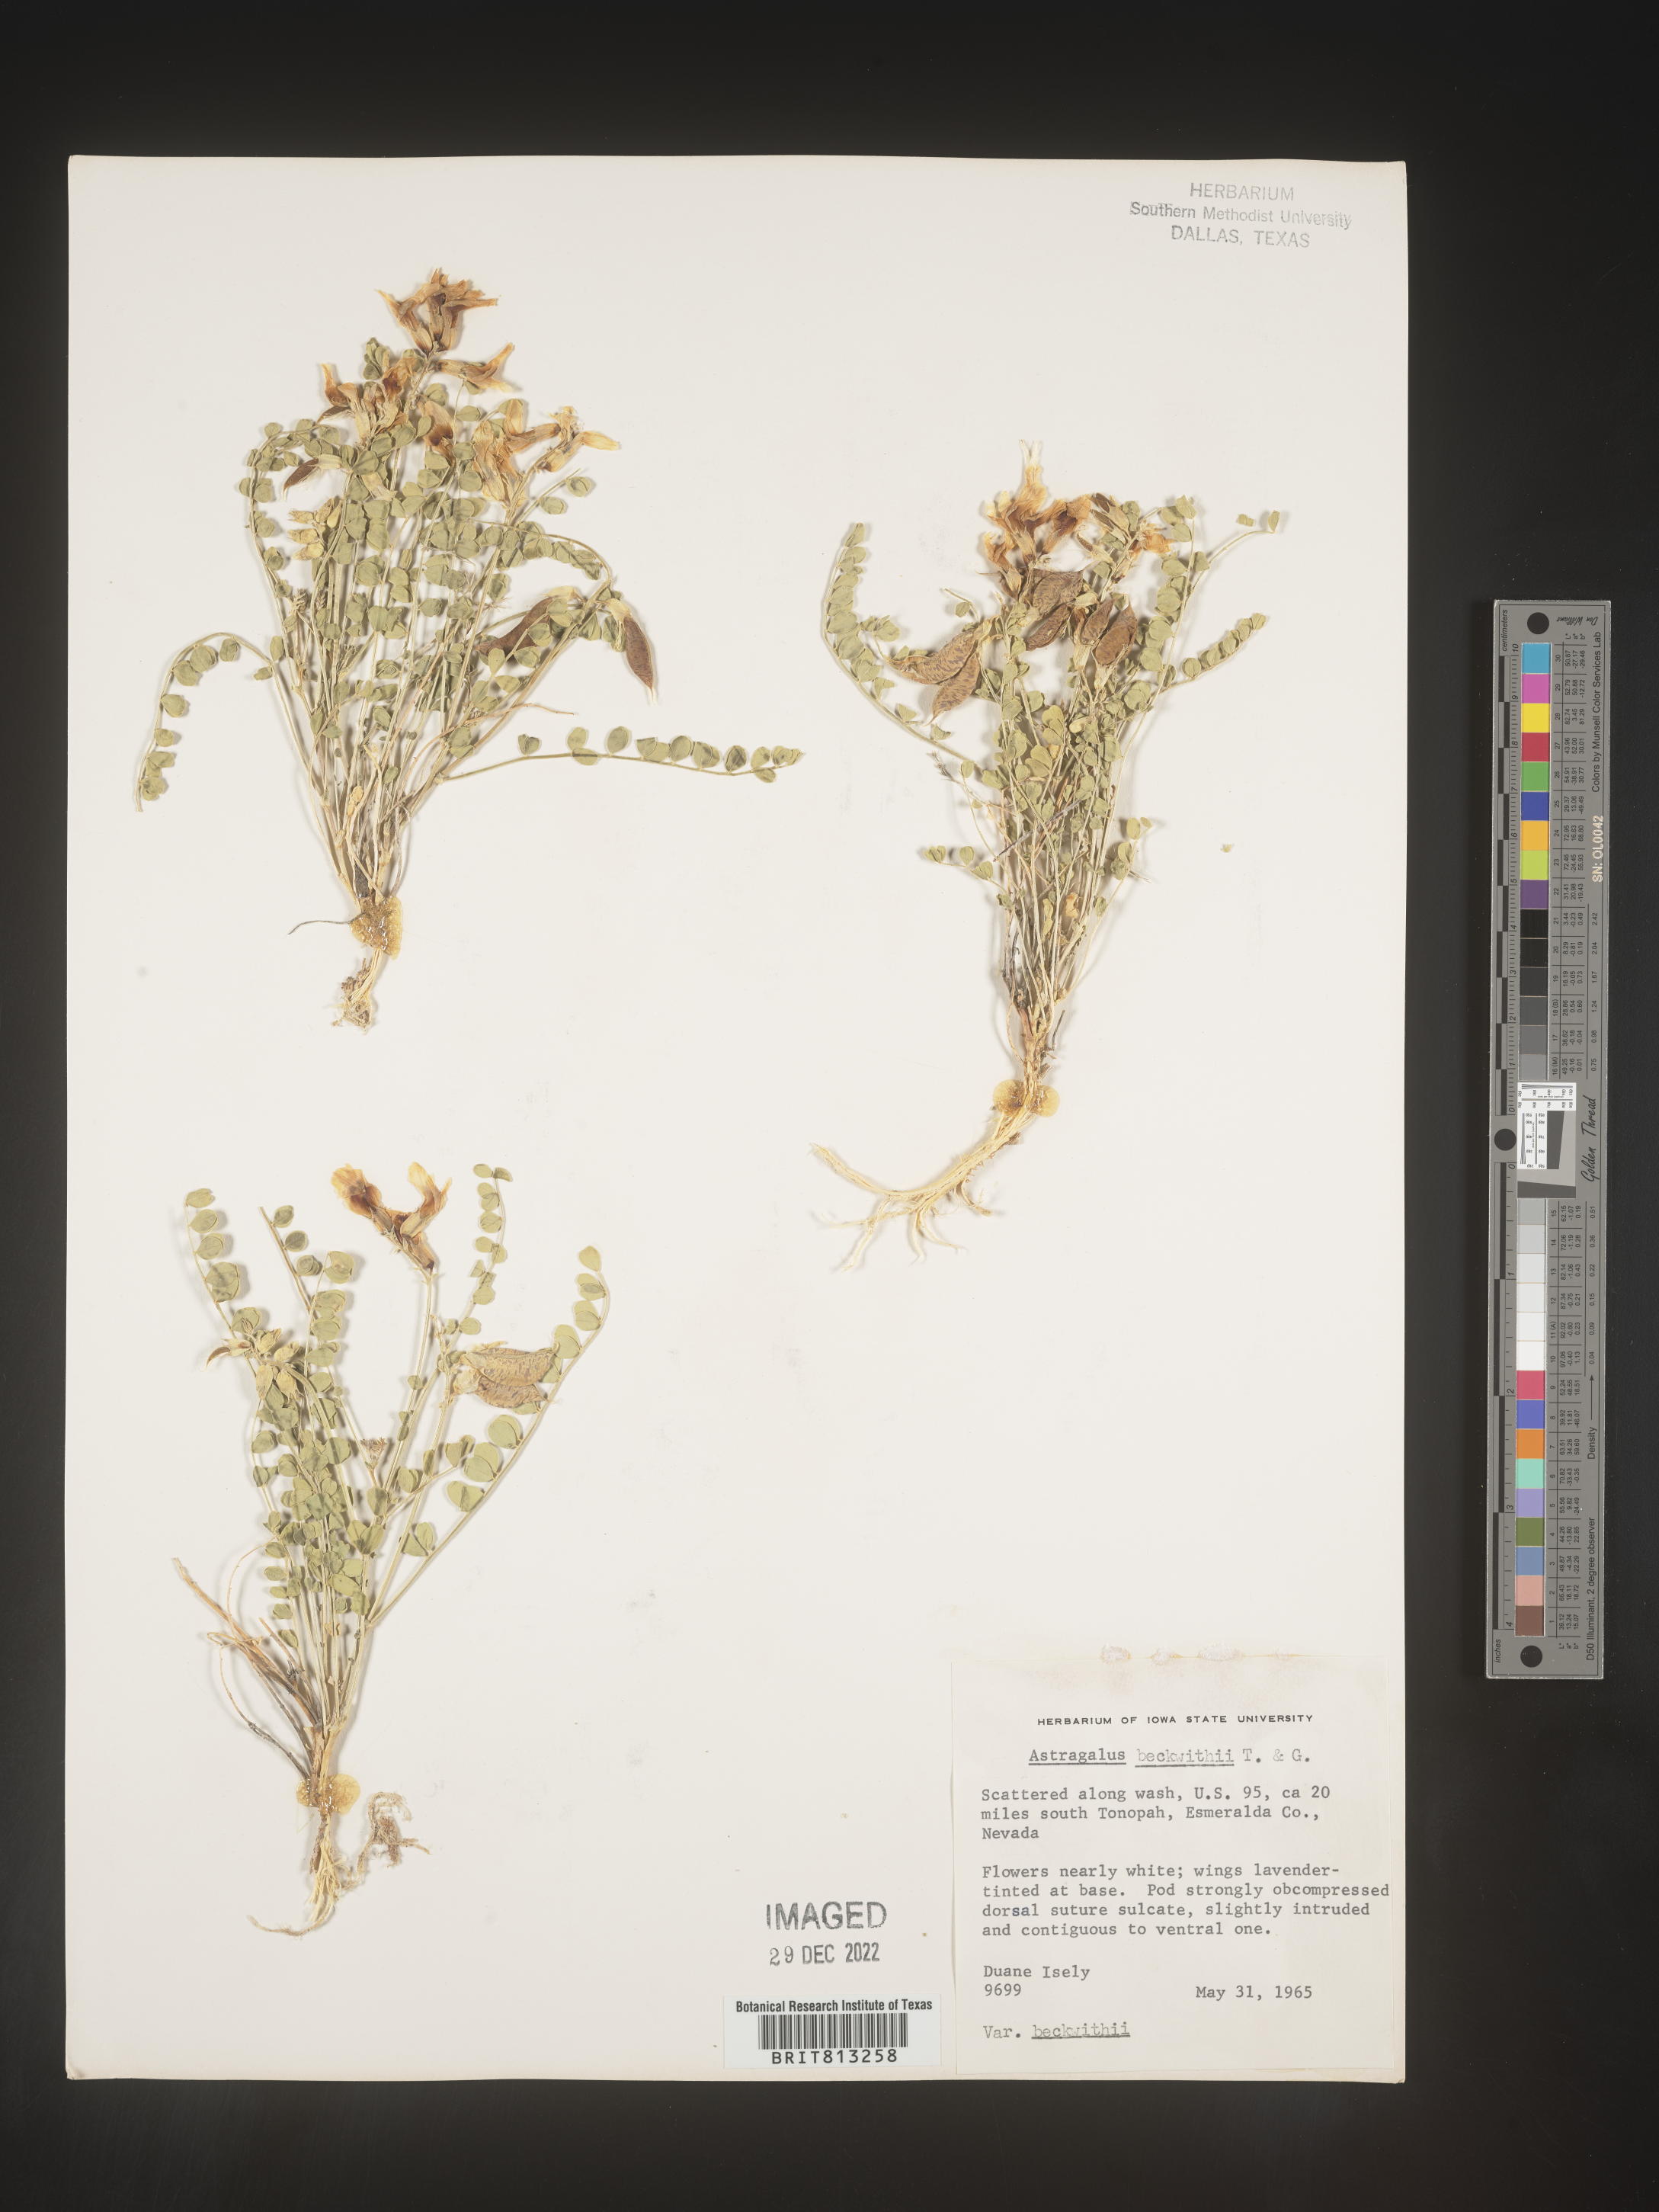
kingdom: Plantae
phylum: Tracheophyta
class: Magnoliopsida
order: Fabales
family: Fabaceae
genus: Astragalus
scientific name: Astragalus
